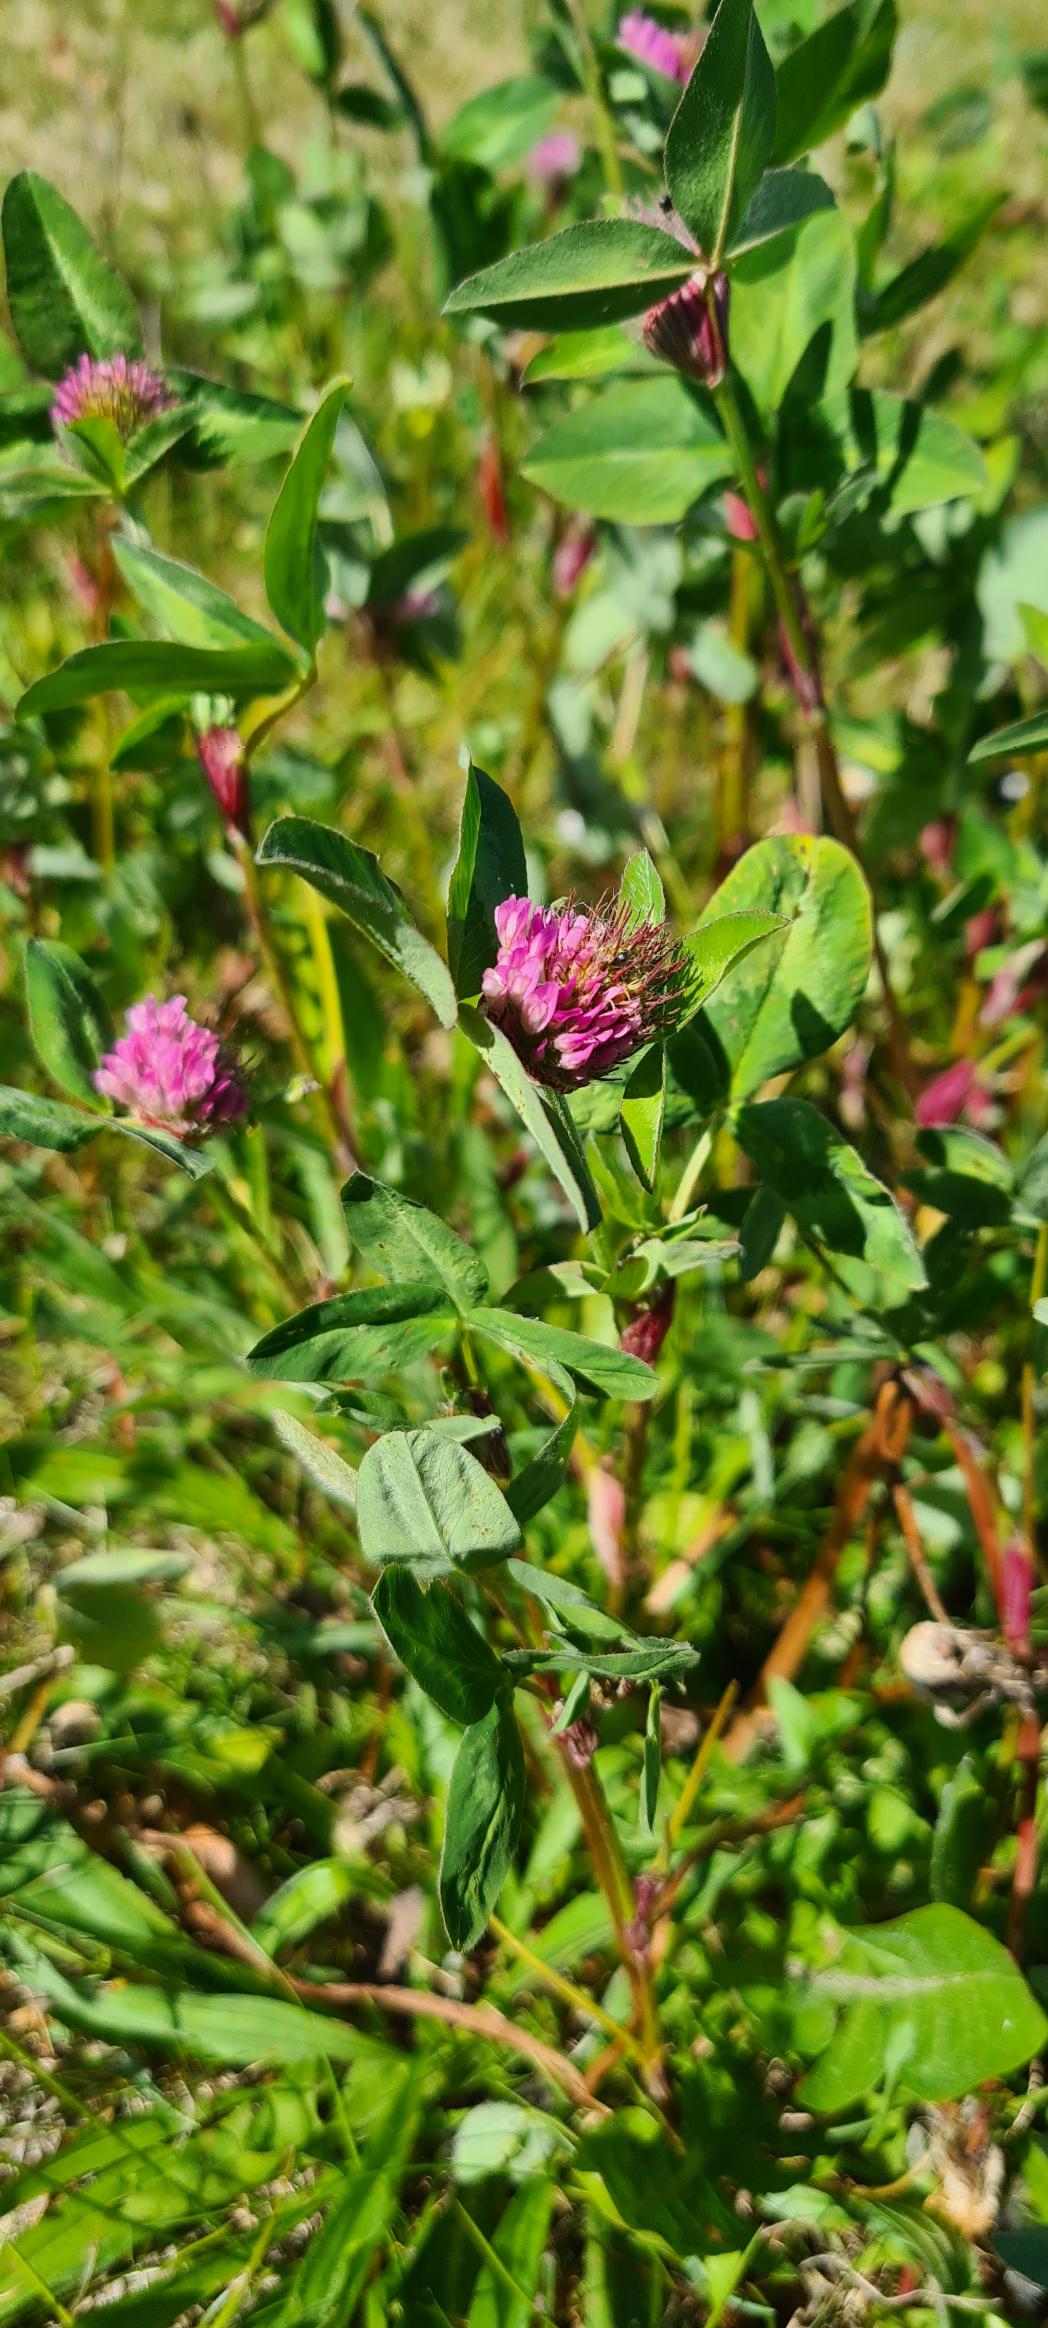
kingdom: Plantae
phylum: Tracheophyta
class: Magnoliopsida
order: Fabales
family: Fabaceae
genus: Trifolium
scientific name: Trifolium pratense
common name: Rød-kløver
